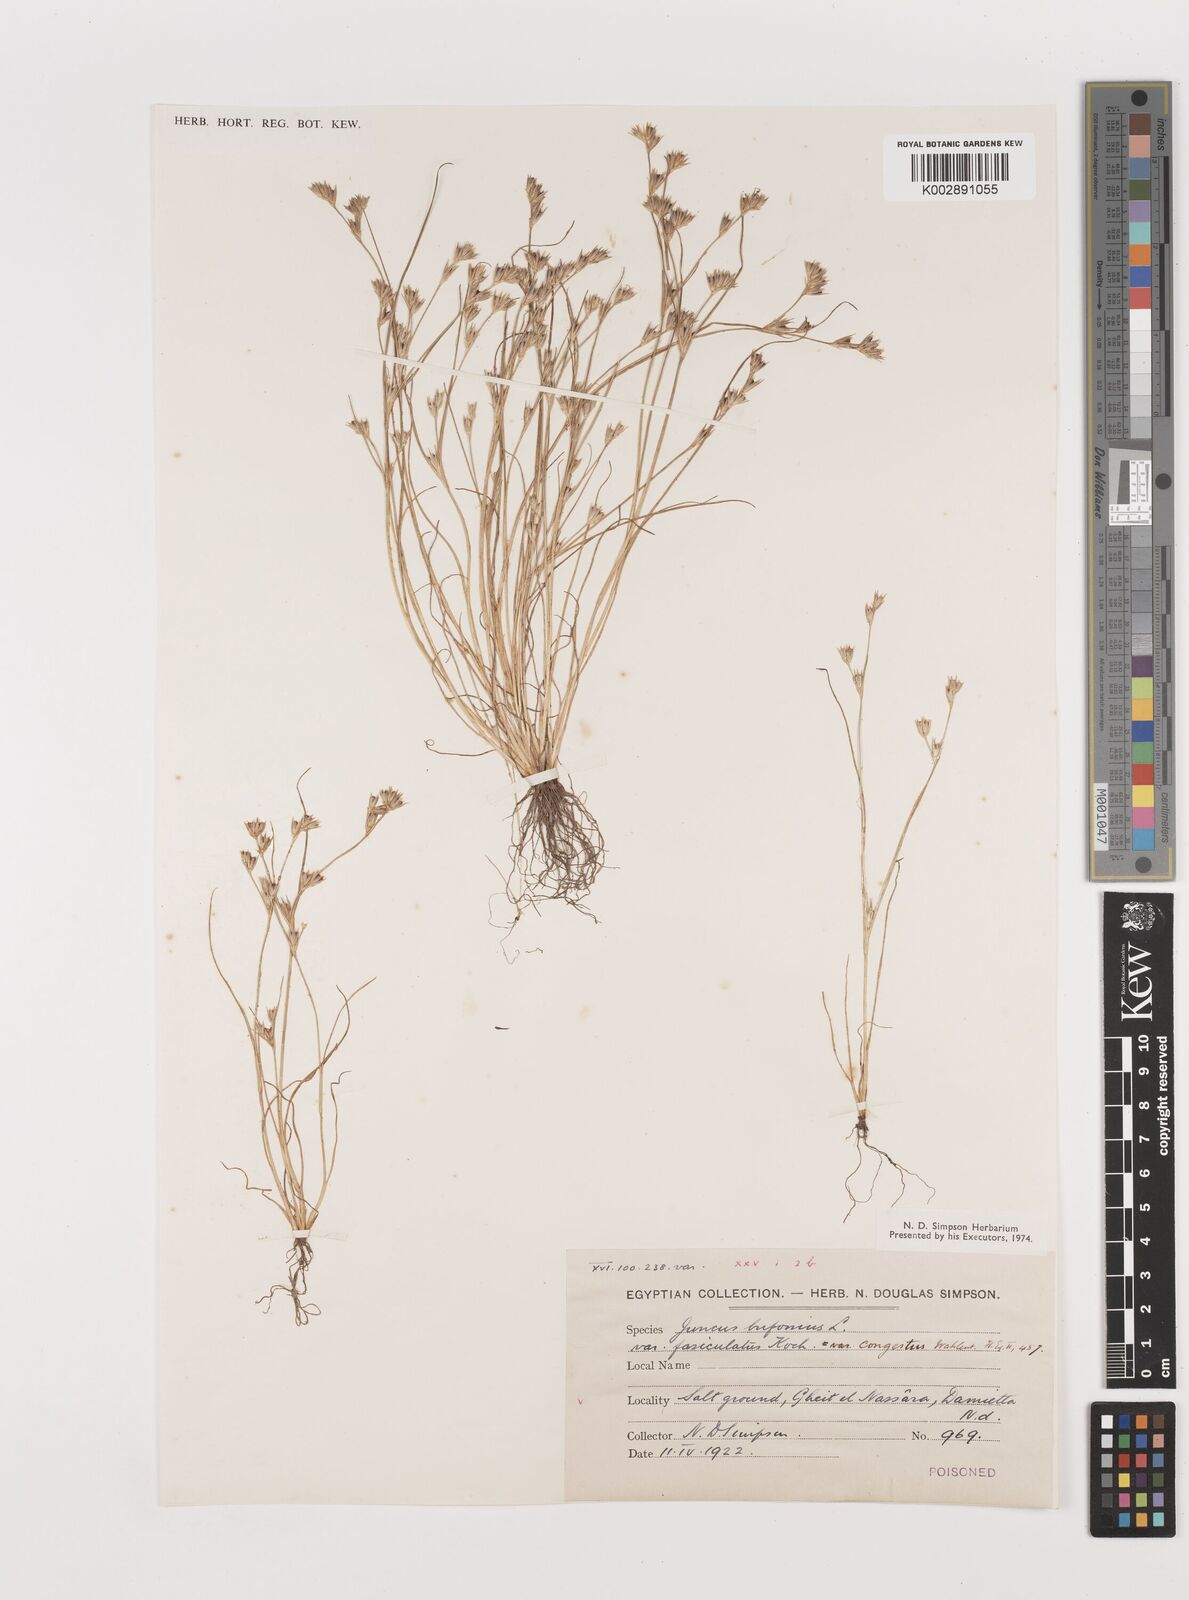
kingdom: Plantae
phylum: Tracheophyta
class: Liliopsida
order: Poales
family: Juncaceae
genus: Juncus
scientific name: Juncus bufonius
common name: Toad rush
